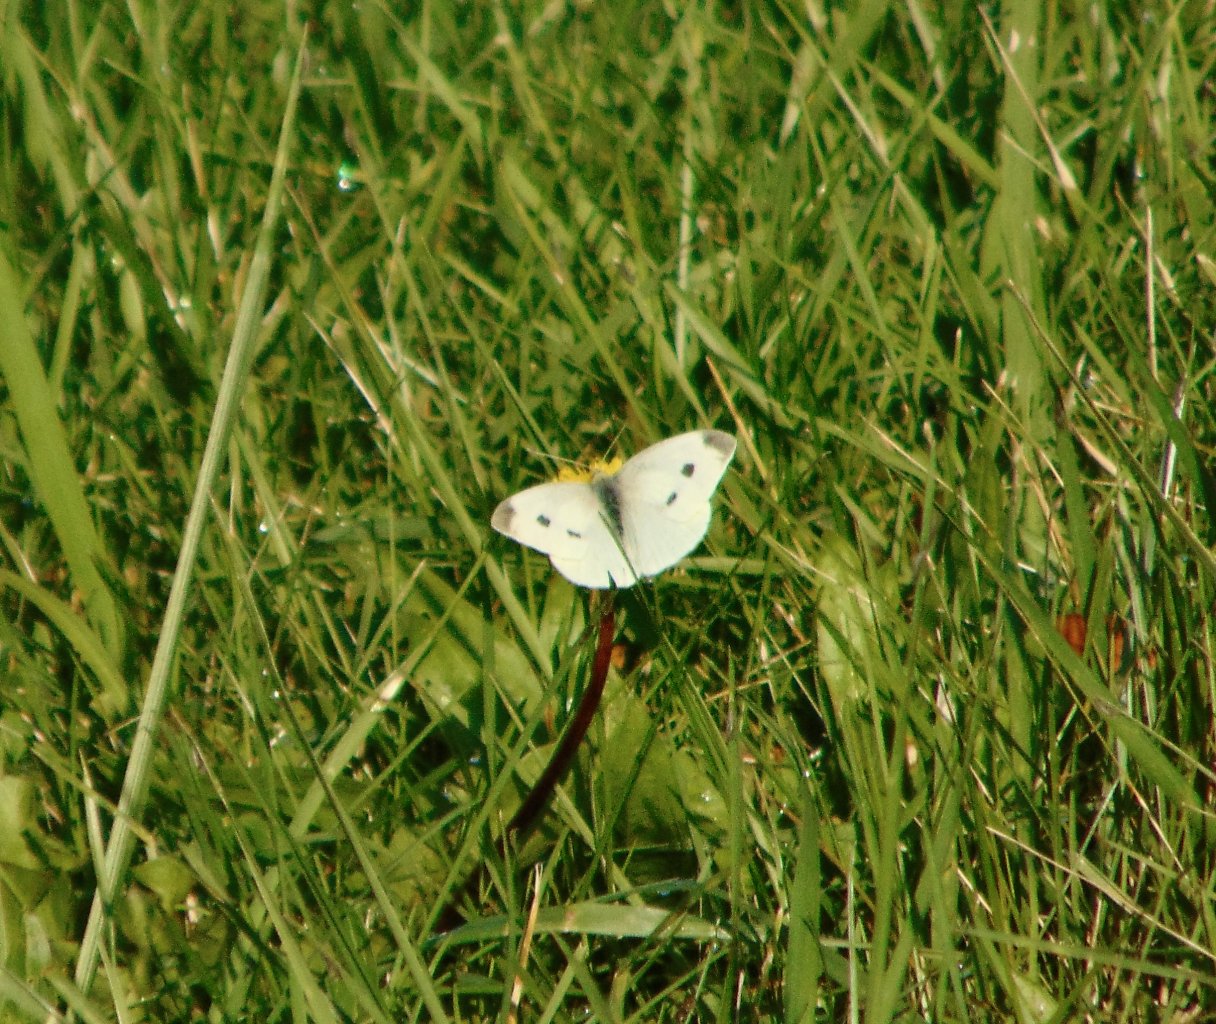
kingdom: Animalia
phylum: Arthropoda
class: Insecta
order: Lepidoptera
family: Pieridae
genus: Pieris
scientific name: Pieris rapae
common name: Cabbage White
